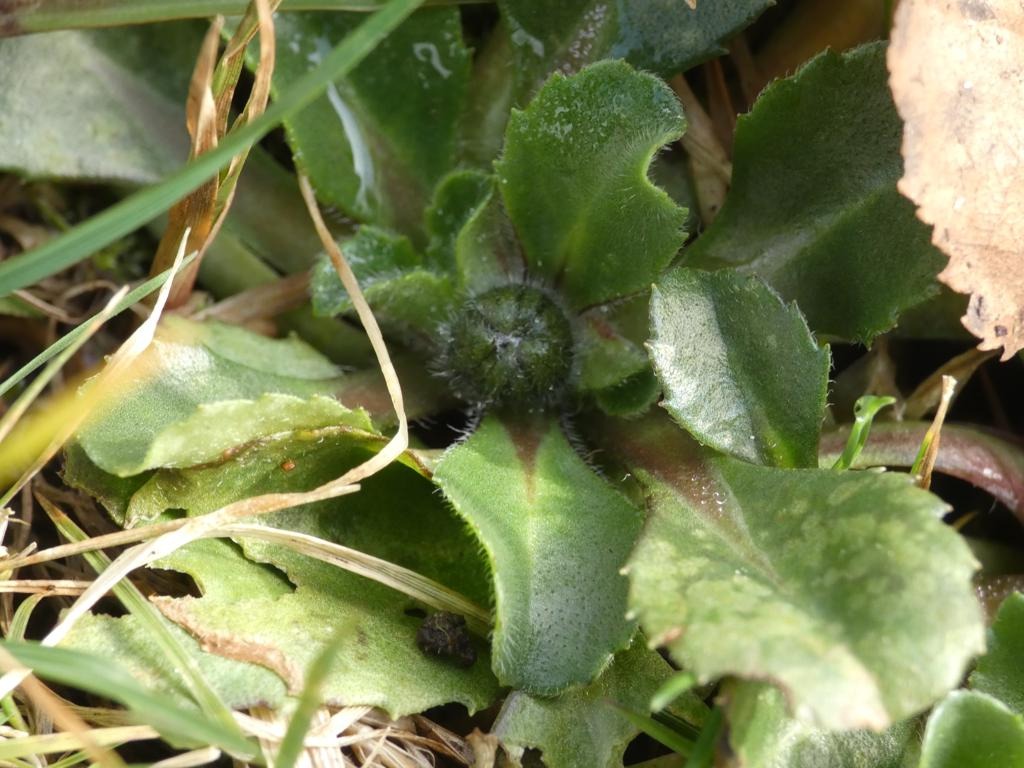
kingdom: Plantae
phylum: Tracheophyta
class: Magnoliopsida
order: Asterales
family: Asteraceae
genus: Bellis
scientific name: Bellis perennis
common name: Tusindfryd
